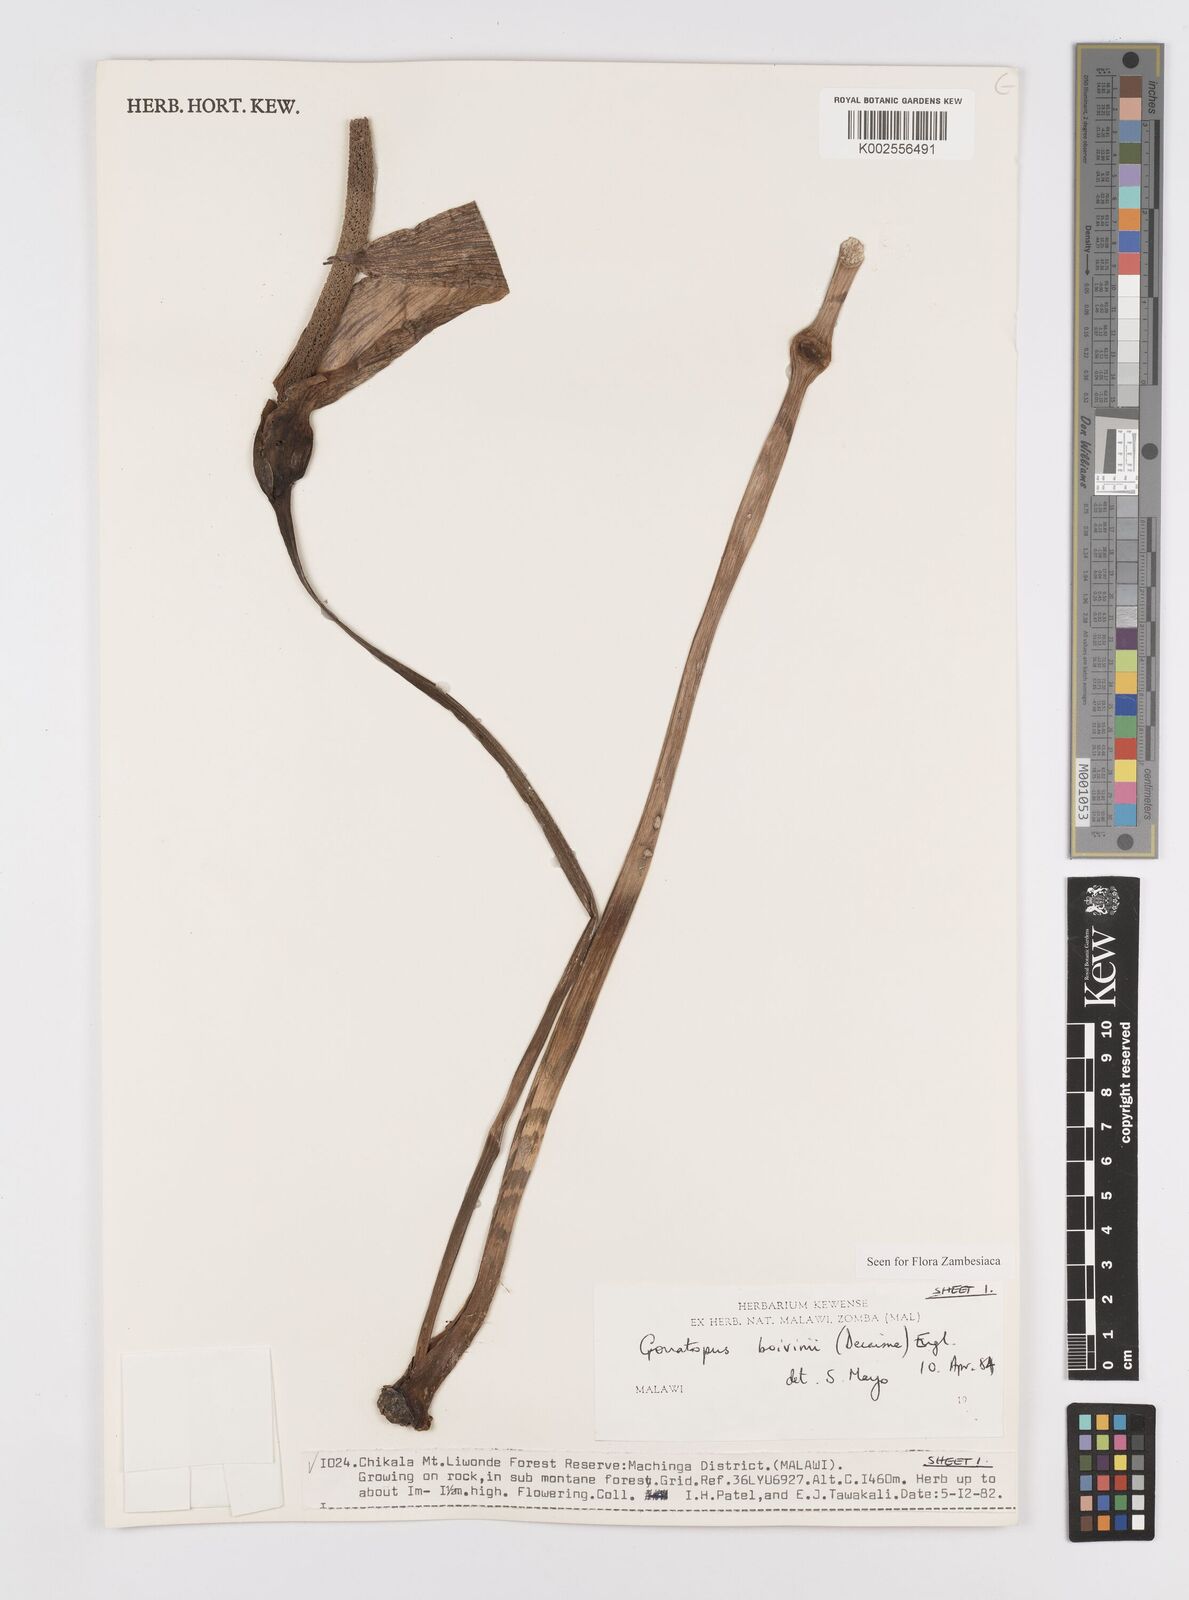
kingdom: Plantae
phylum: Tracheophyta
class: Liliopsida
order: Alismatales
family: Araceae
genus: Gonatopus
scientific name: Gonatopus boivinii
